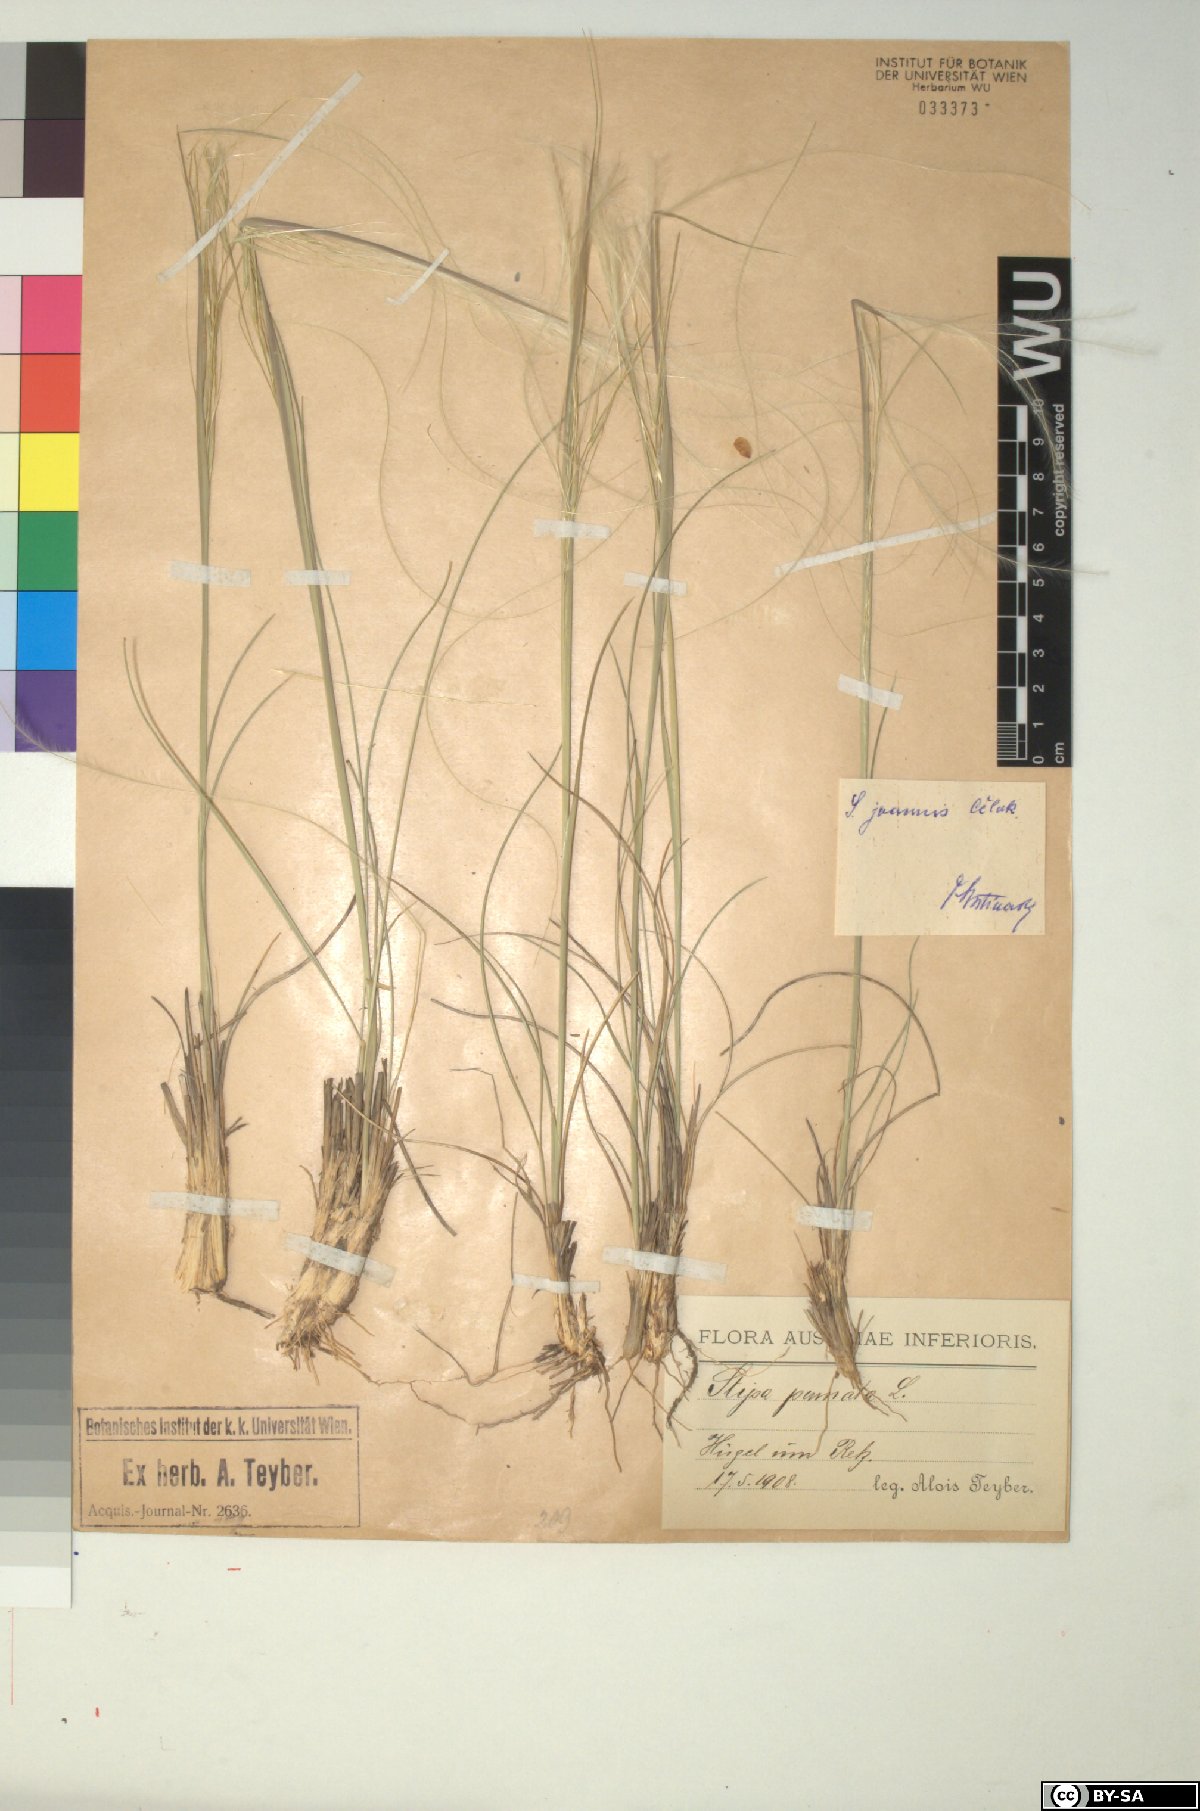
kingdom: Plantae
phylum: Tracheophyta
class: Liliopsida
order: Poales
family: Poaceae
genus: Stipa
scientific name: Stipa pennata
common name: European feather grass
